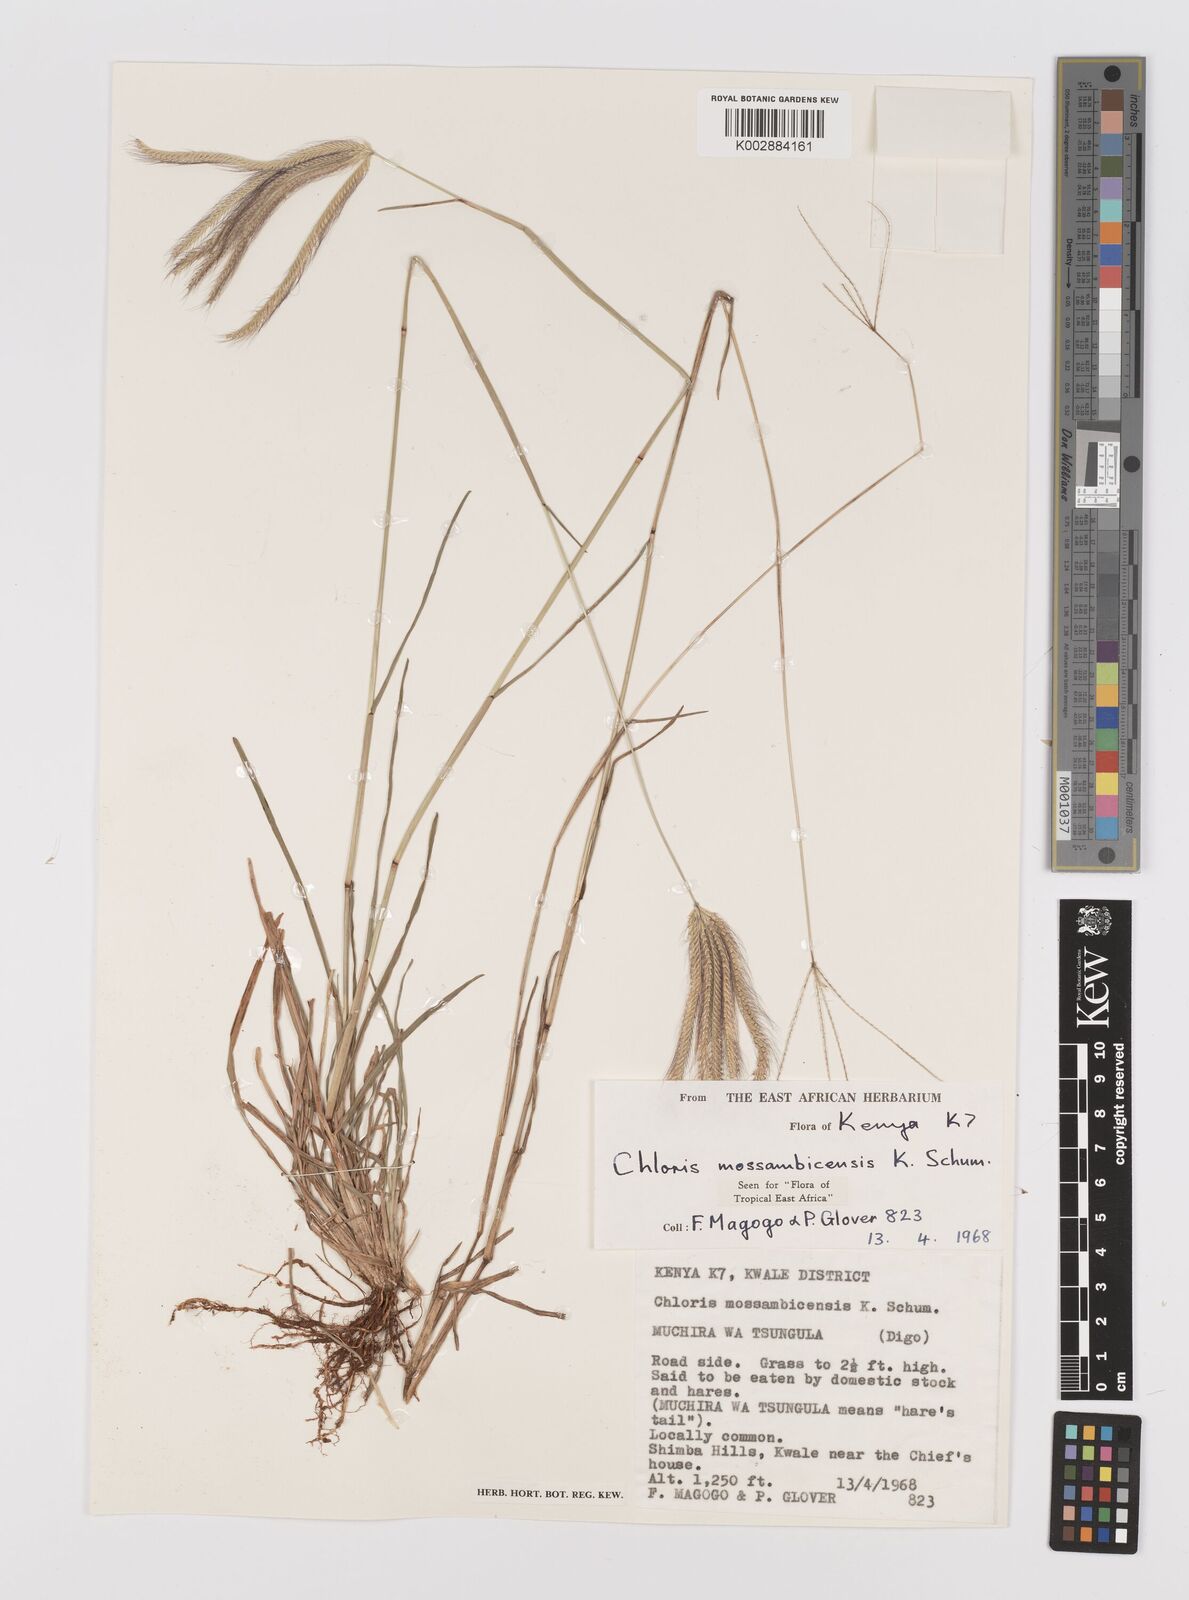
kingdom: Plantae
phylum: Tracheophyta
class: Liliopsida
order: Poales
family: Poaceae
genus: Chloris
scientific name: Chloris mossambicensis
